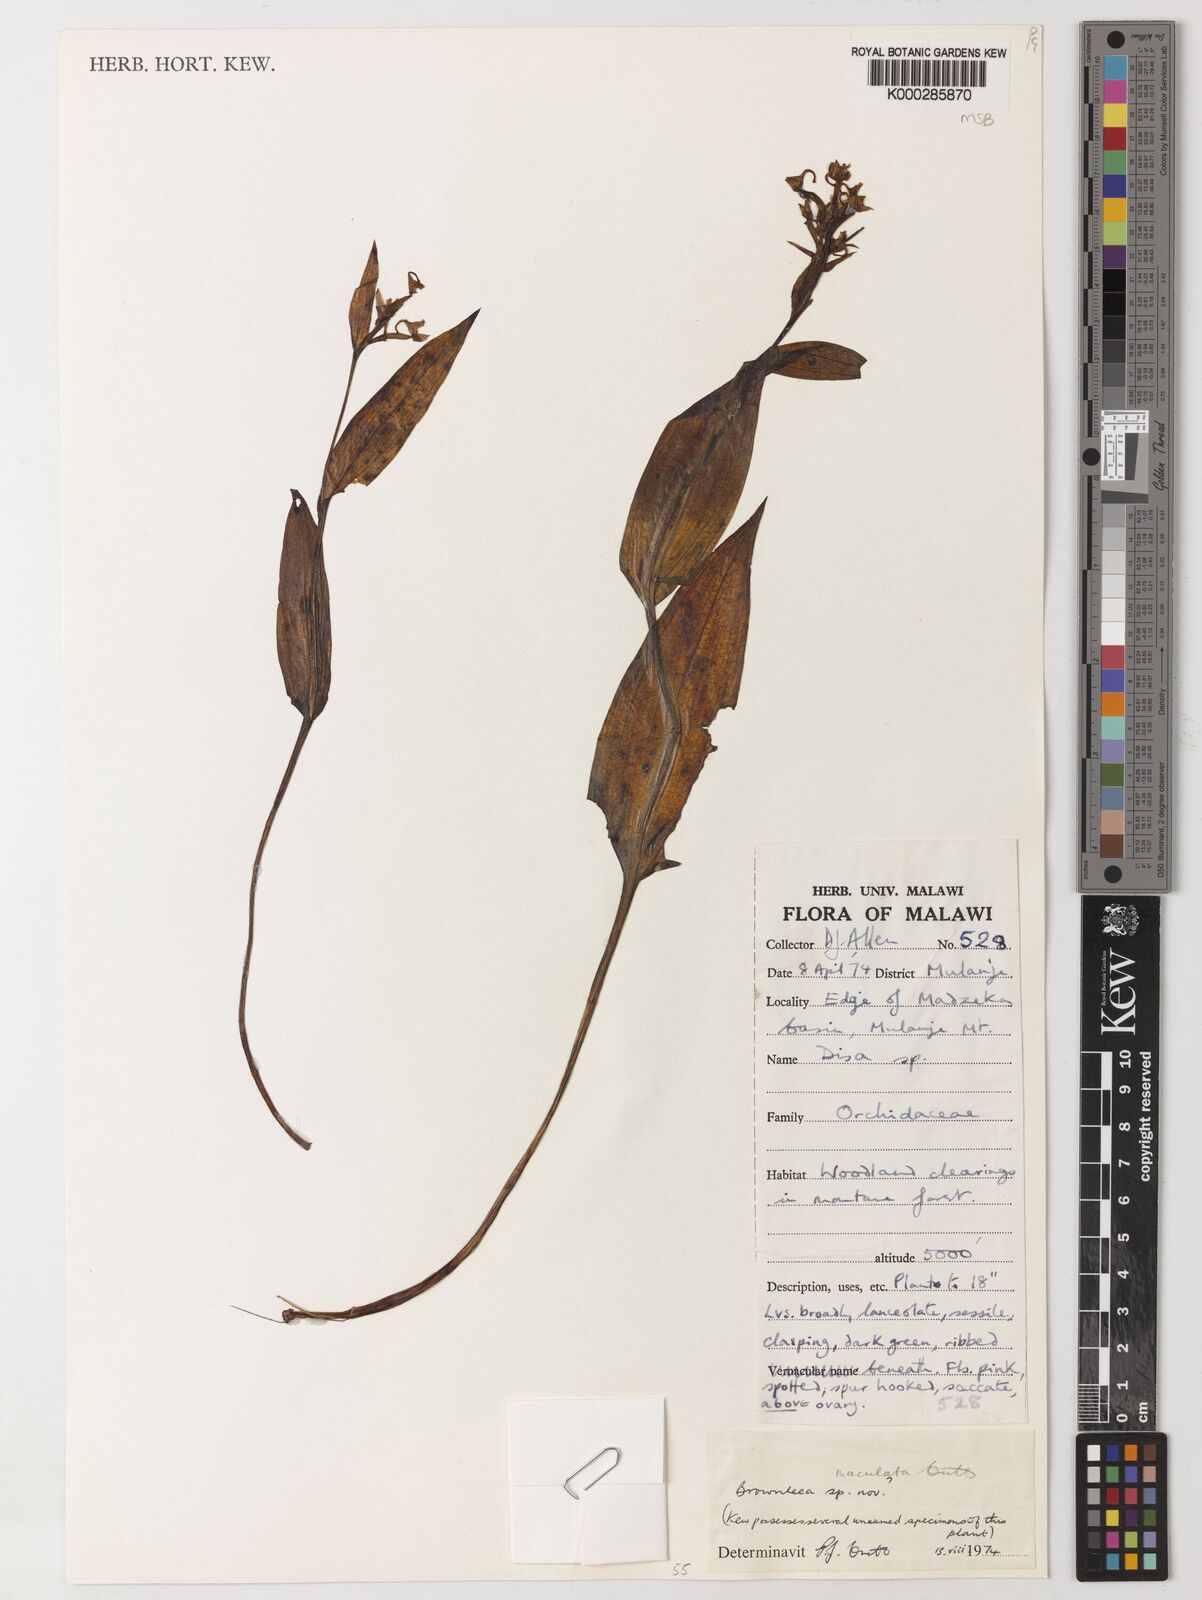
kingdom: Plantae
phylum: Tracheophyta
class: Liliopsida
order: Asparagales
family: Orchidaceae
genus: Brownleea
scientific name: Brownleea maculata
